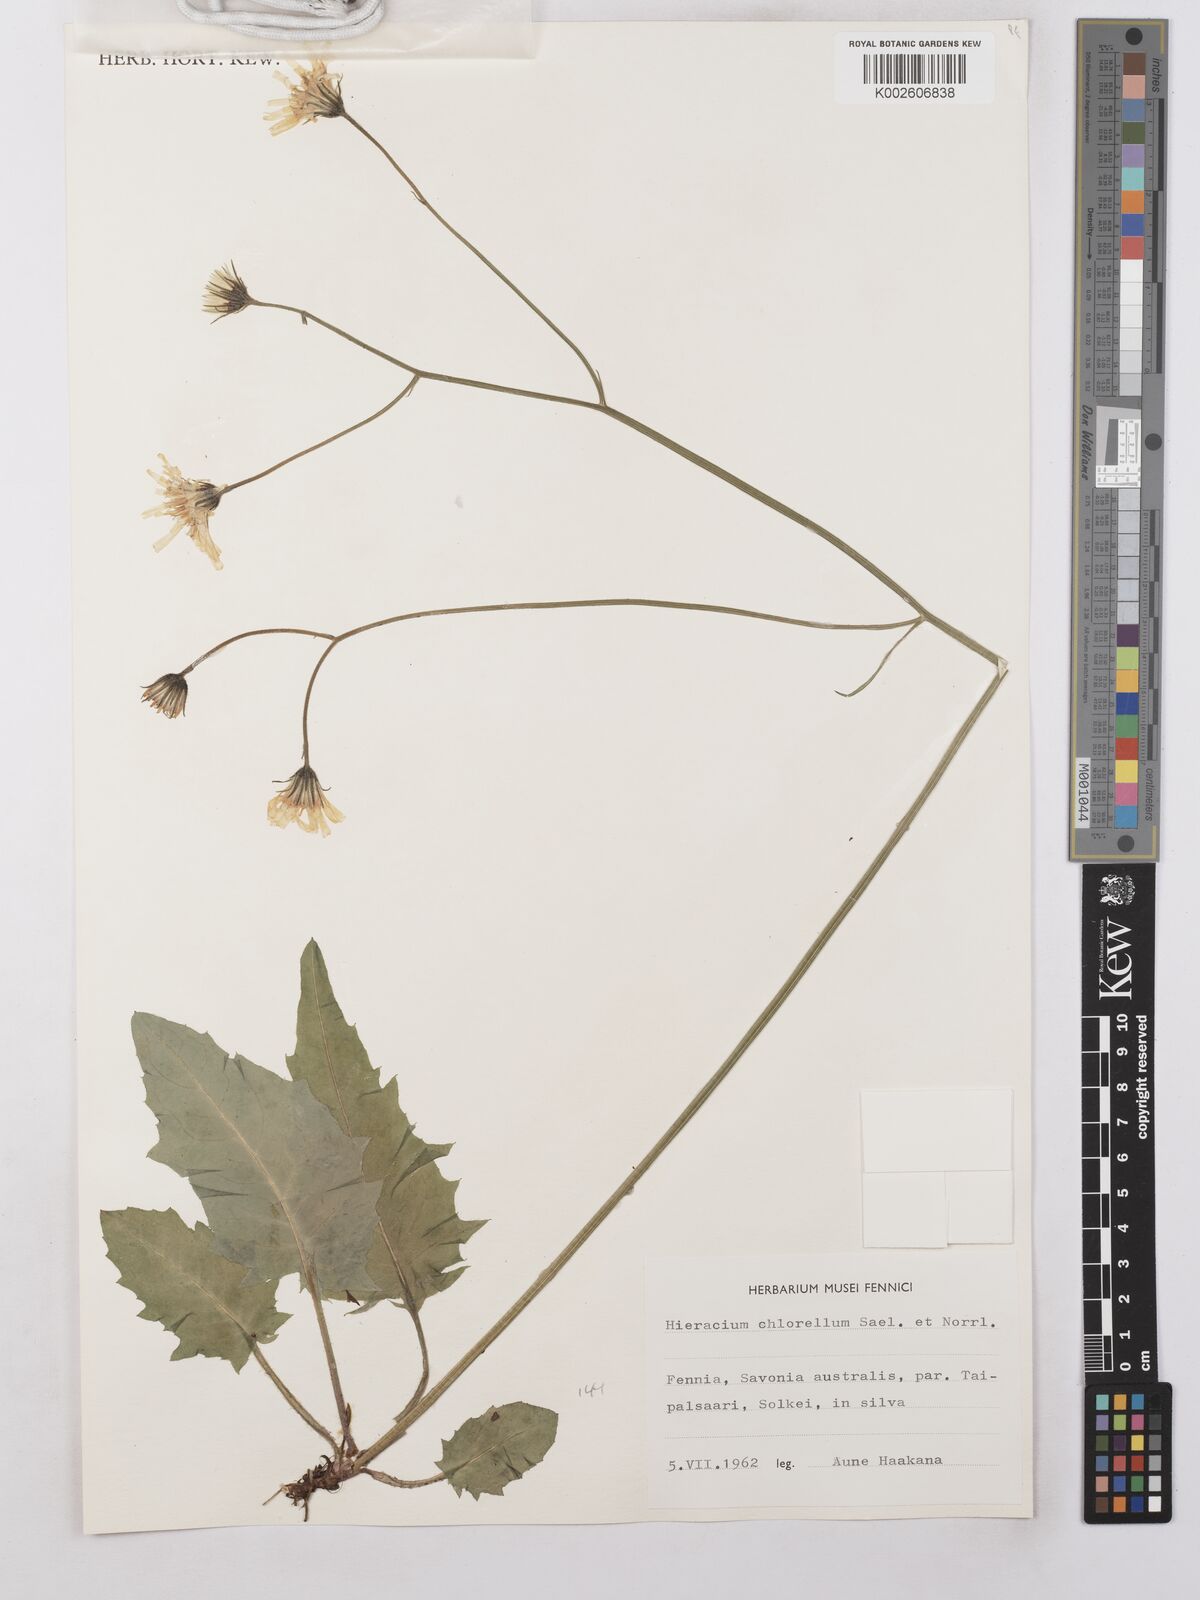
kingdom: Plantae
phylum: Tracheophyta
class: Magnoliopsida
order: Asterales
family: Asteraceae
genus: Hieracium
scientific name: Hieracium chlorellum
